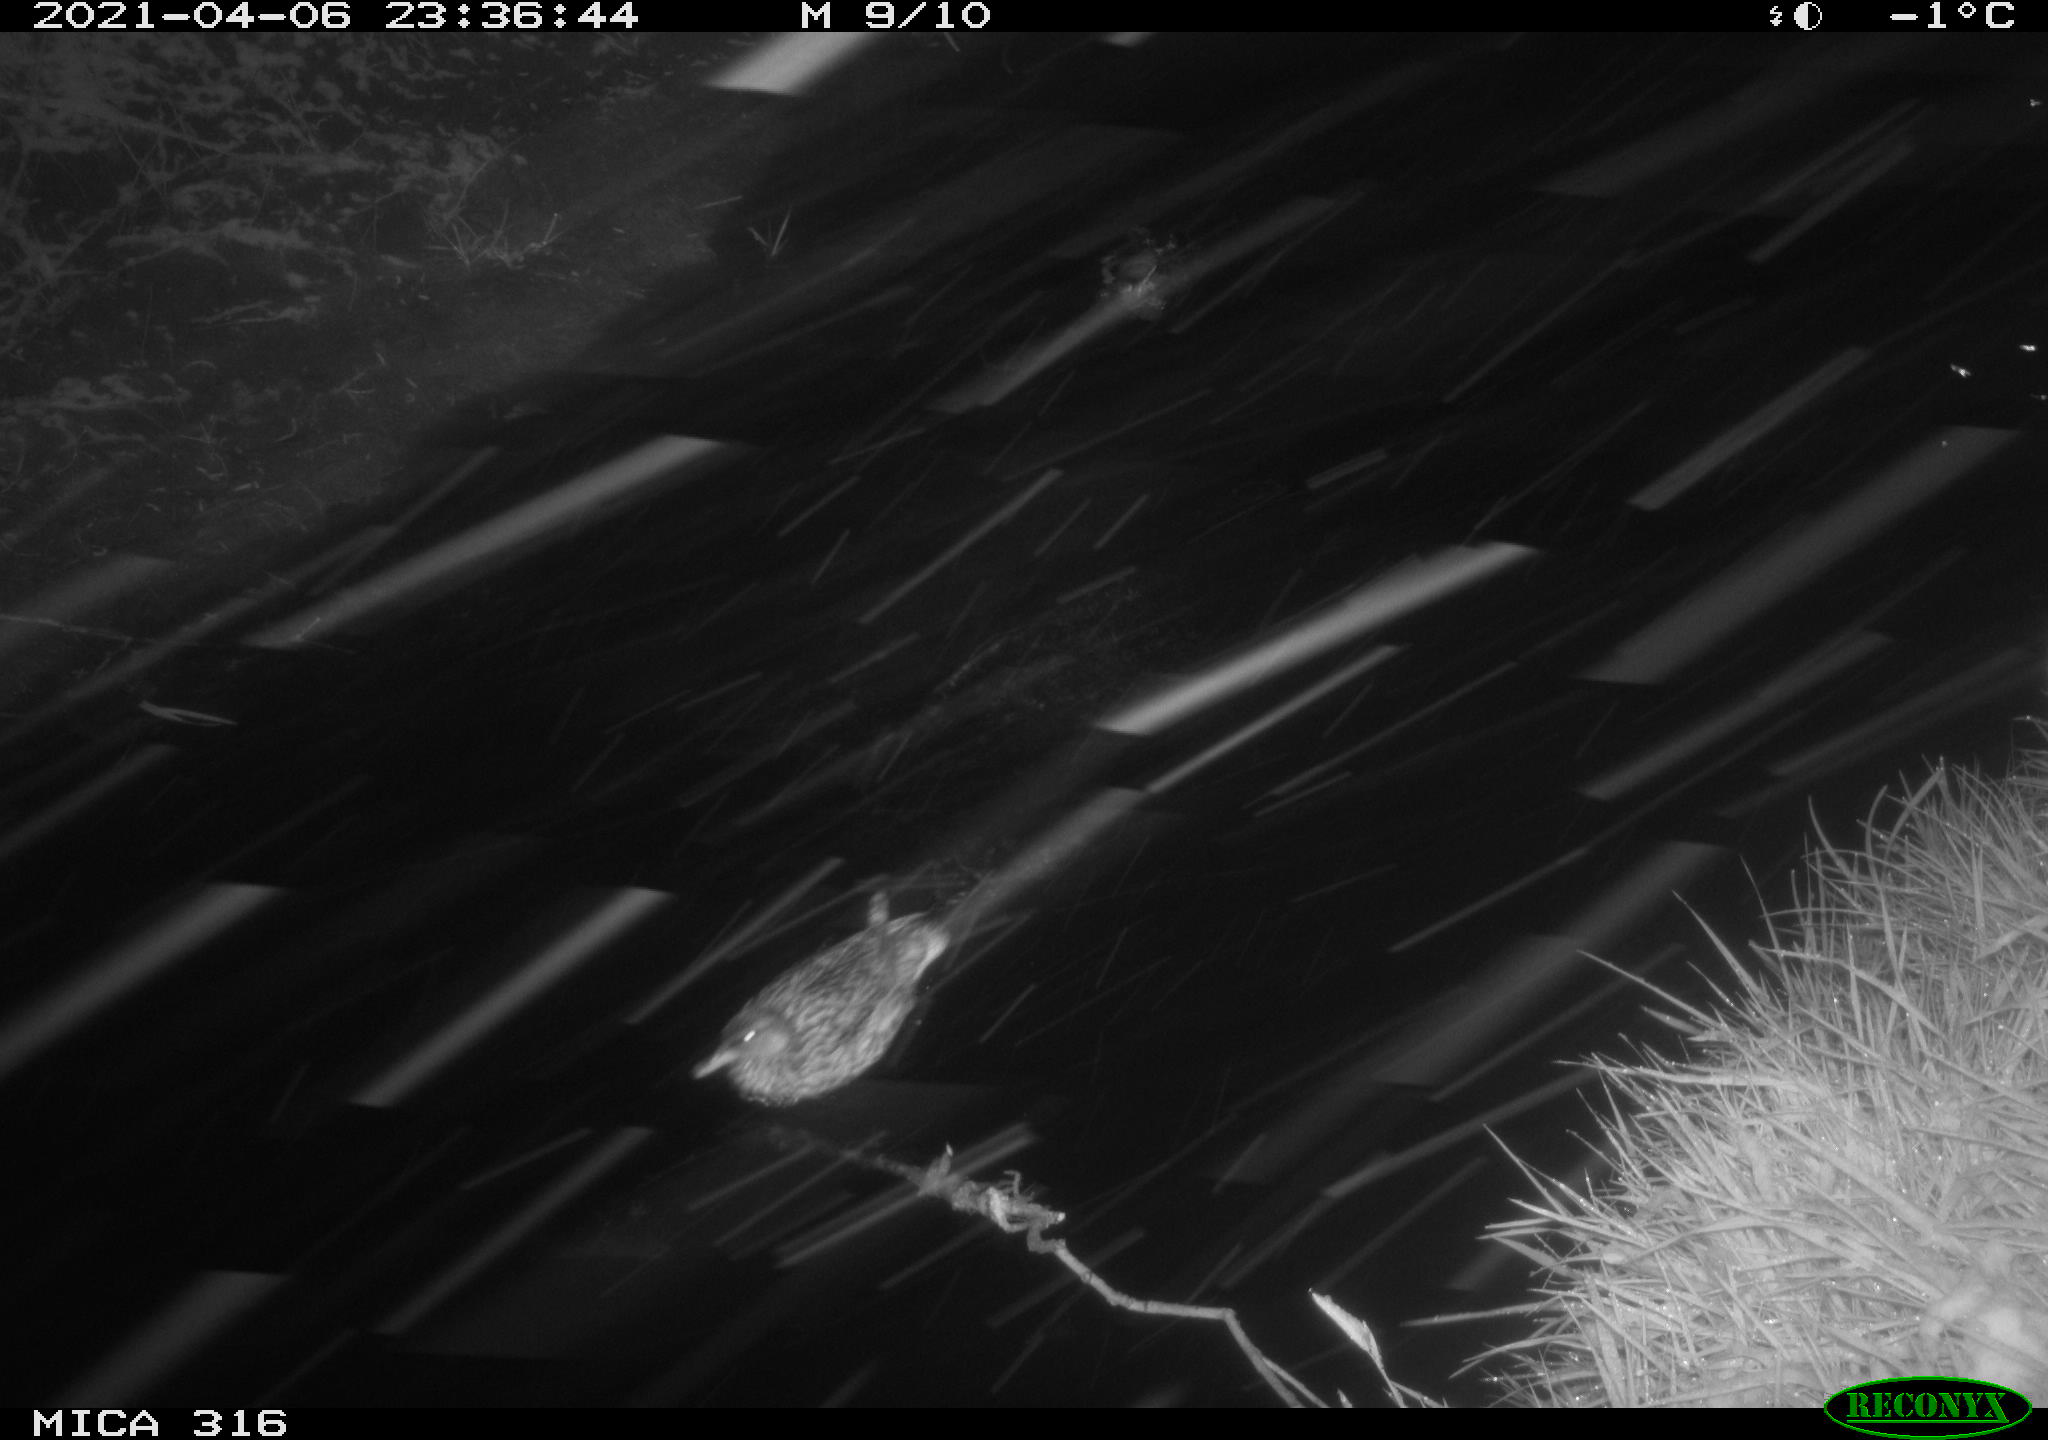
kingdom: Animalia
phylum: Chordata
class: Aves
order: Anseriformes
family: Anatidae
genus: Mareca
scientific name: Mareca strepera
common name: Gadwall
